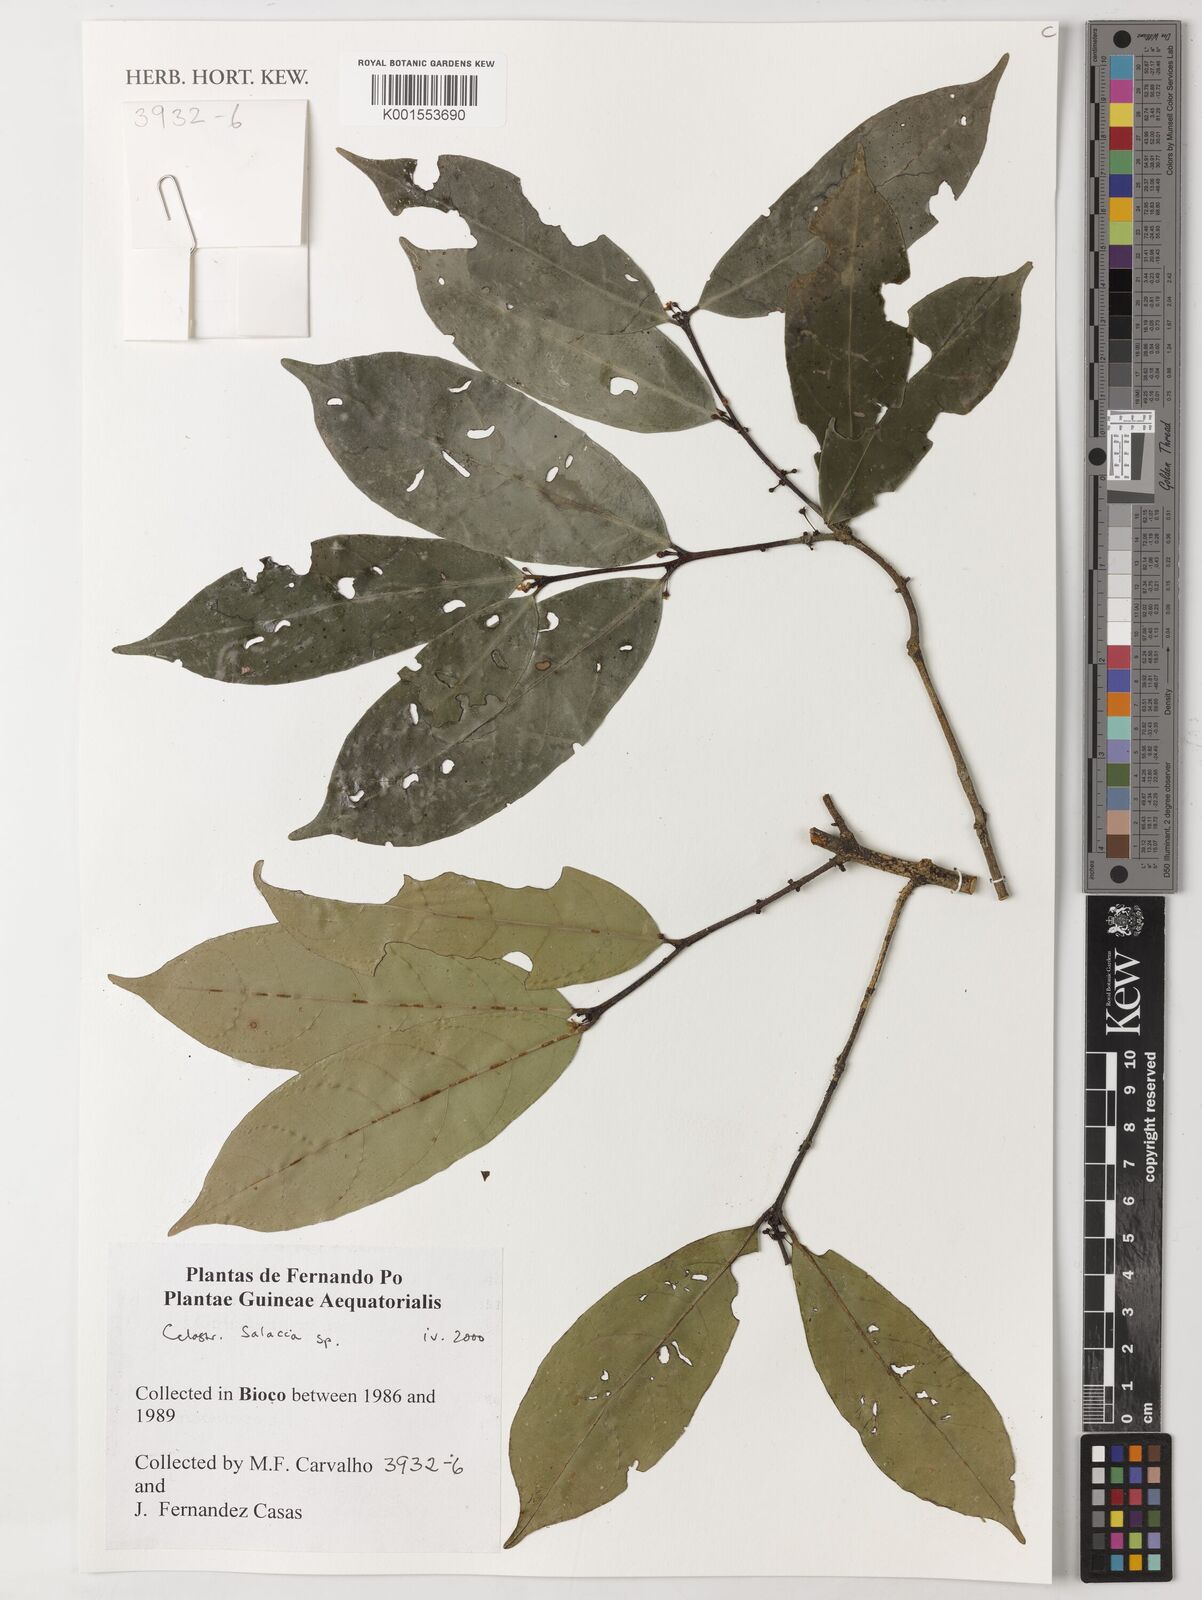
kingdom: Plantae
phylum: Tracheophyta
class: Magnoliopsida
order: Celastrales
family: Celastraceae
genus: Salacia
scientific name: Salacia
